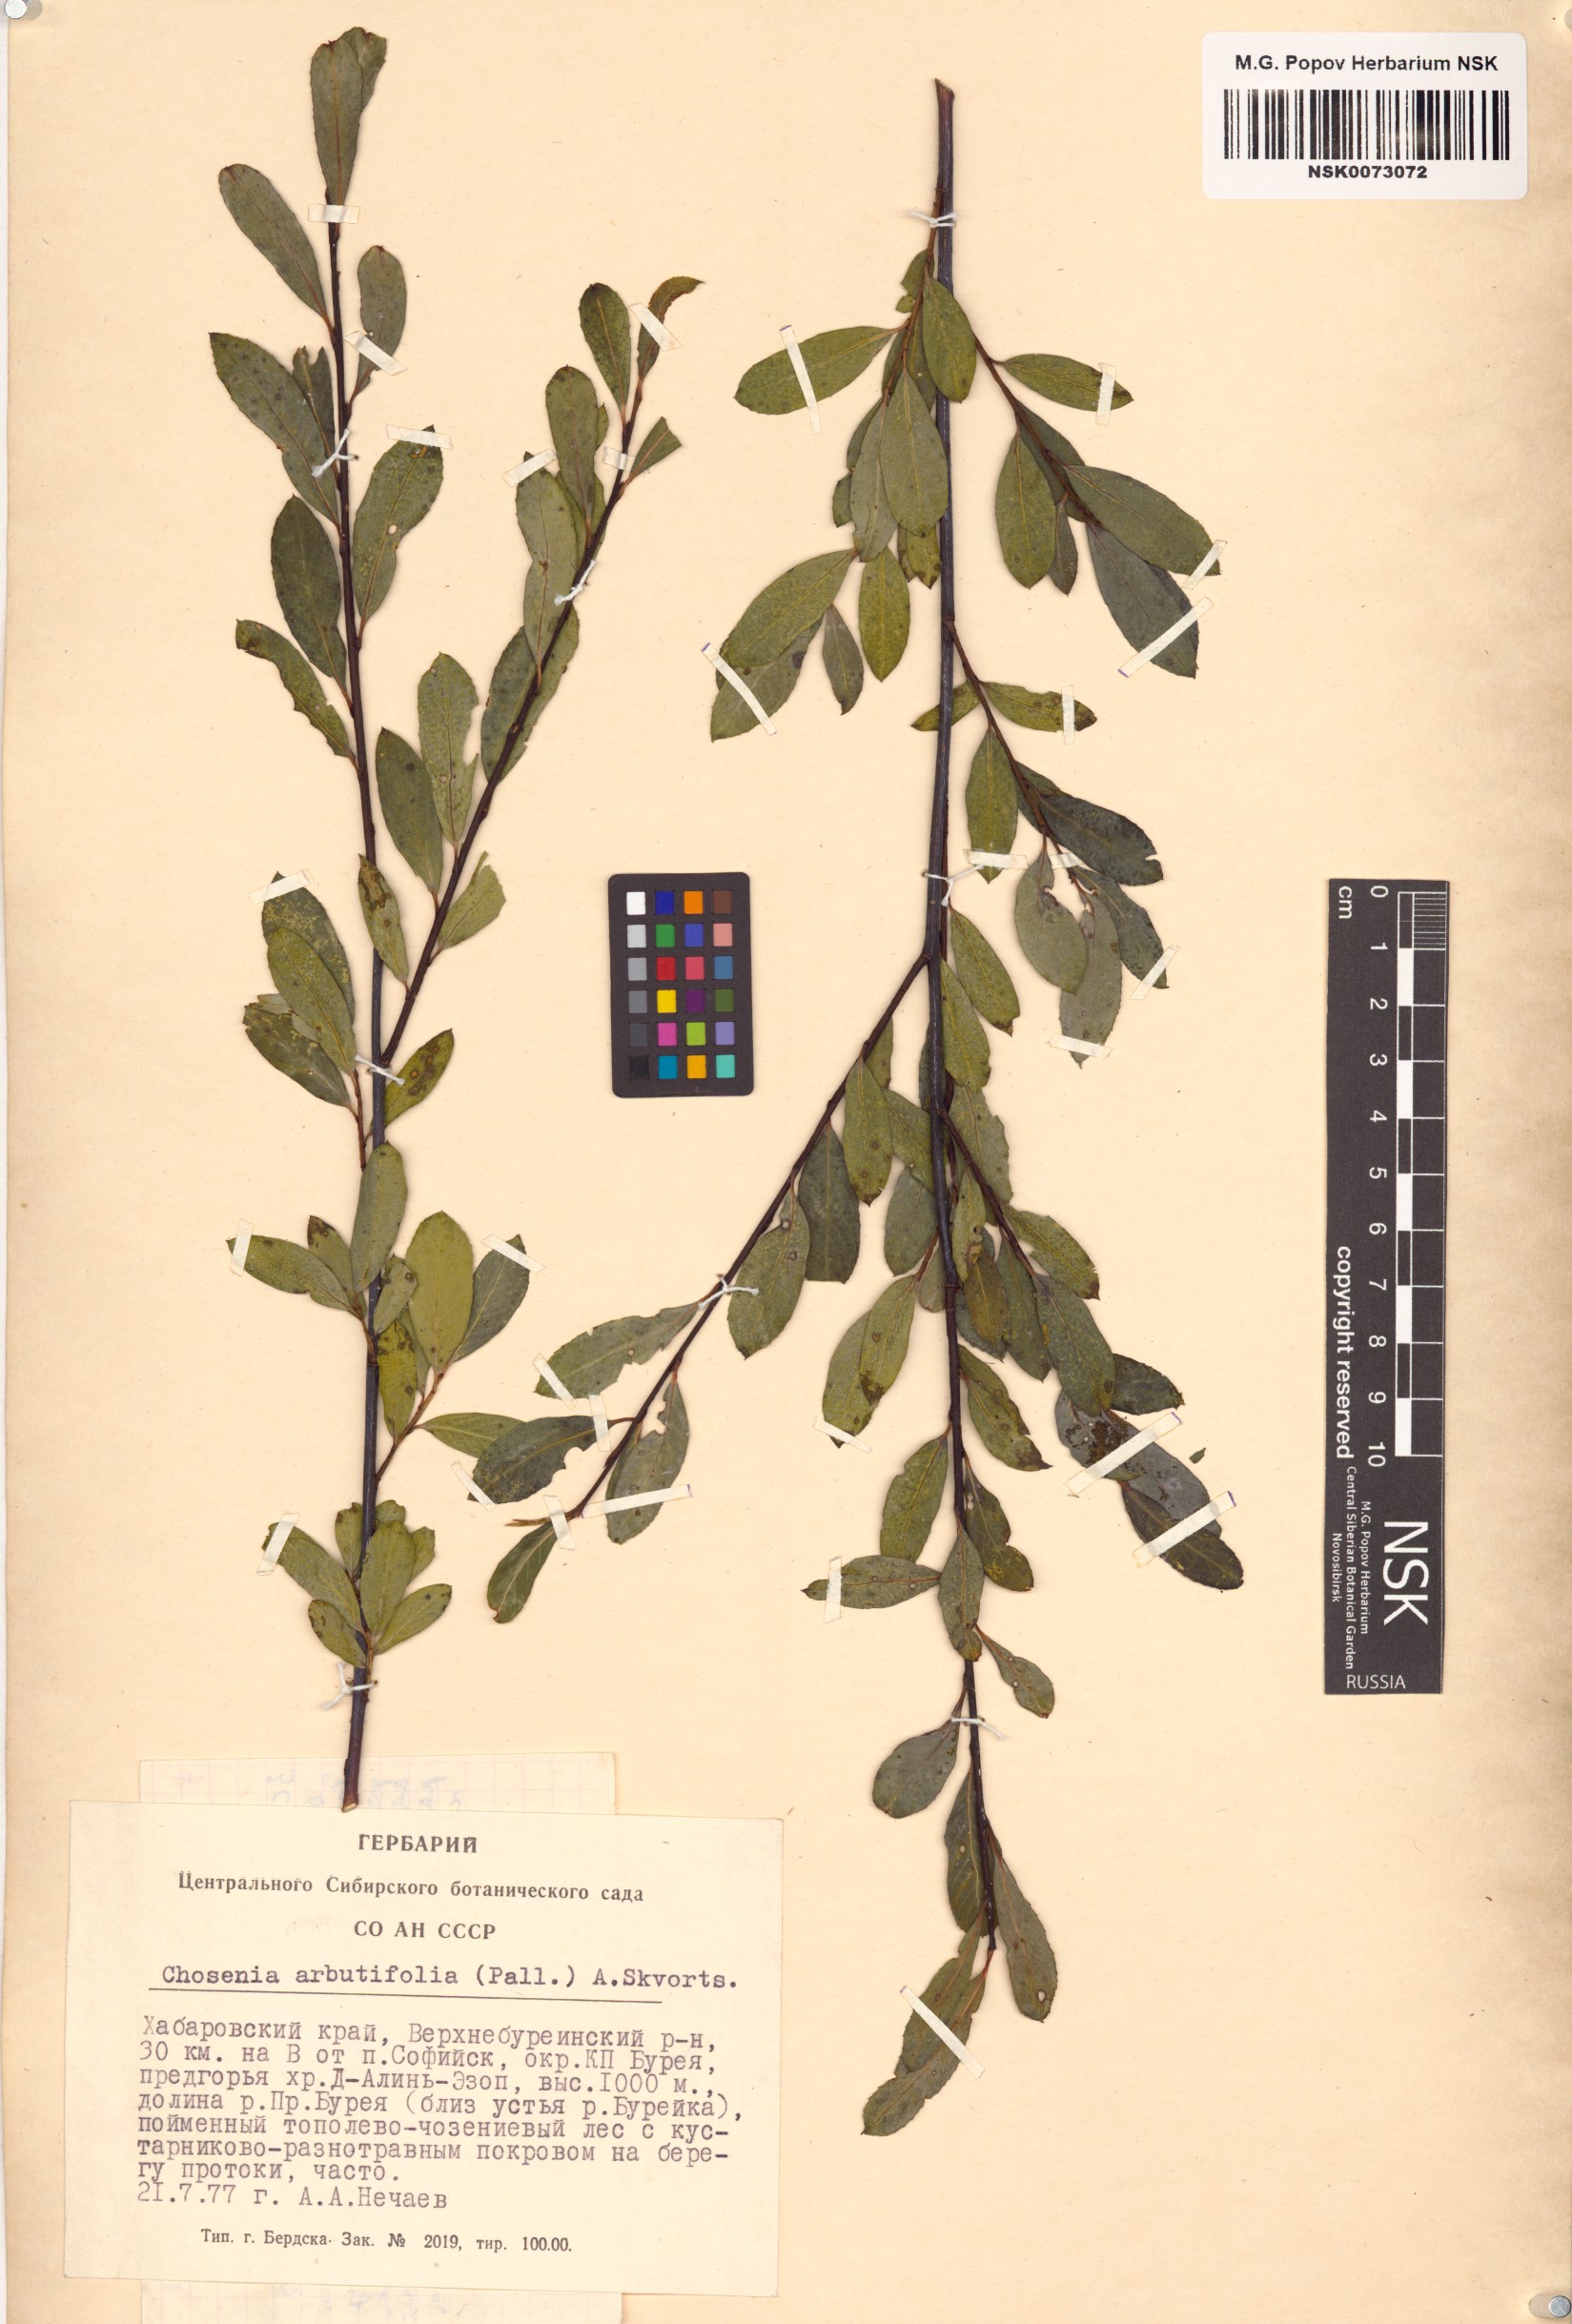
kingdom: Plantae
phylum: Tracheophyta
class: Magnoliopsida
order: Malpighiales
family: Salicaceae
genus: Chosenia
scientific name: Chosenia arbutifolia
